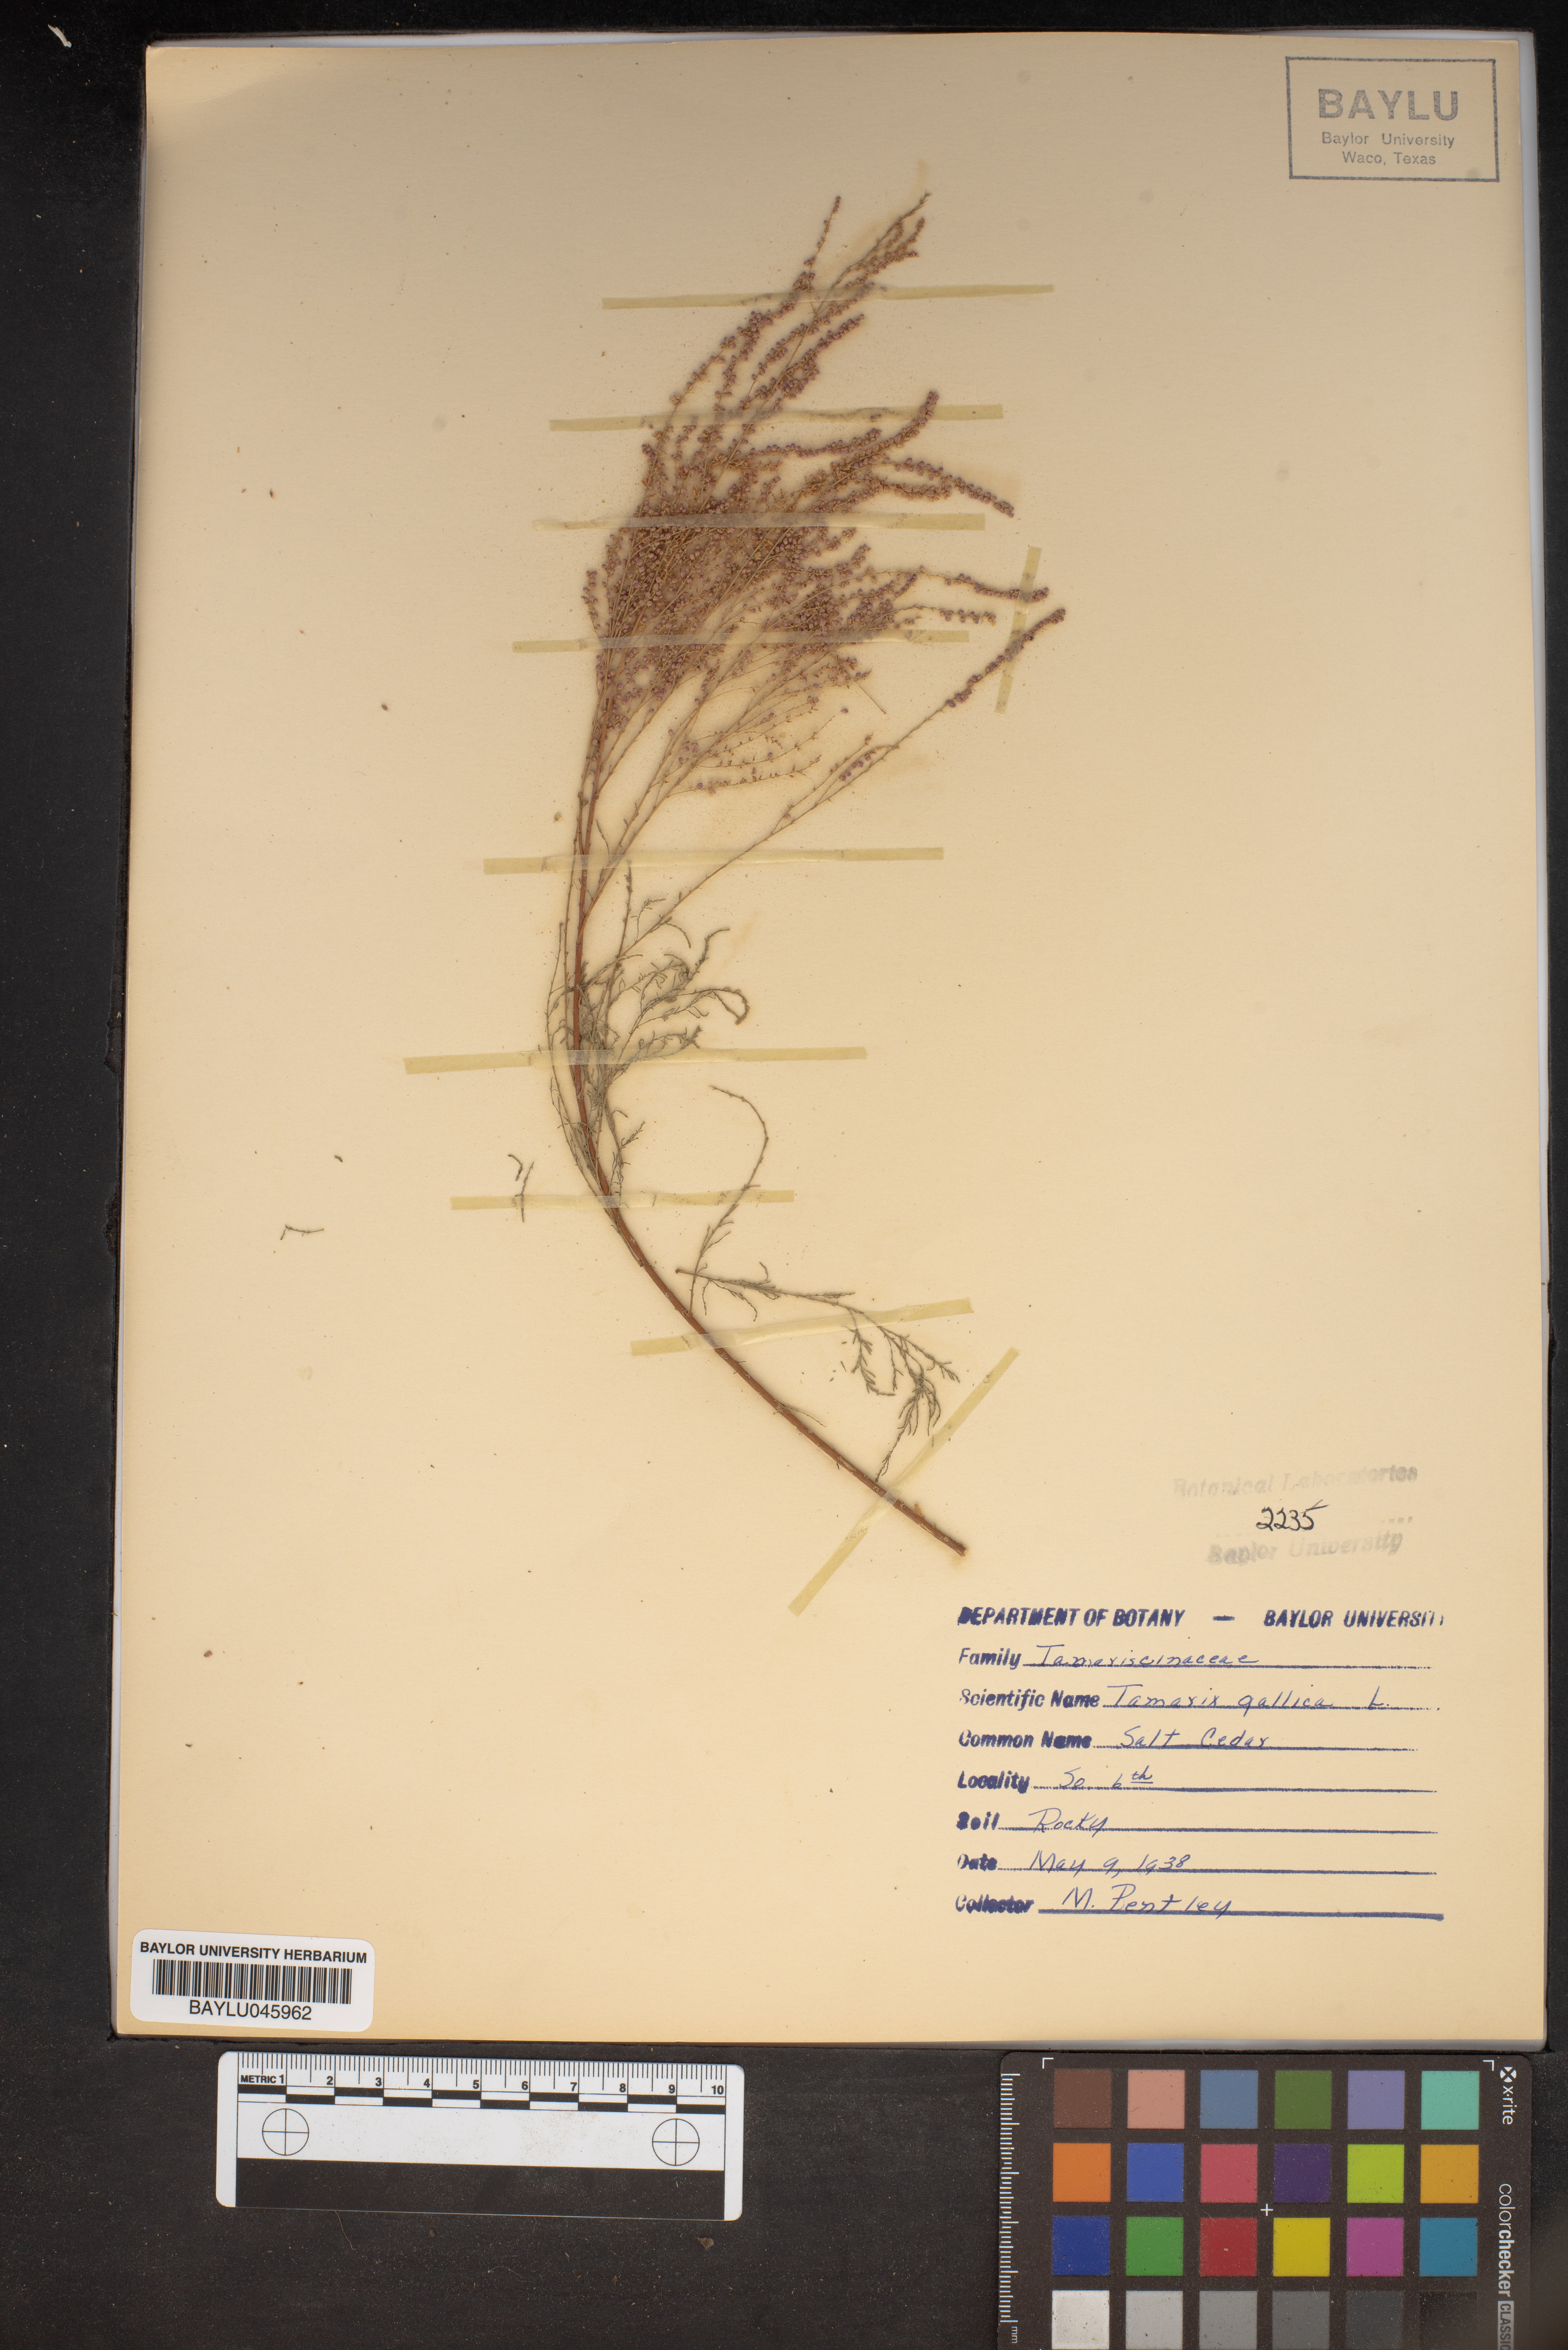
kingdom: Plantae
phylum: Tracheophyta
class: Magnoliopsida
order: Caryophyllales
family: Tamaricaceae
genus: Tamarix
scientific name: Tamarix gallica
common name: Tamarisk
